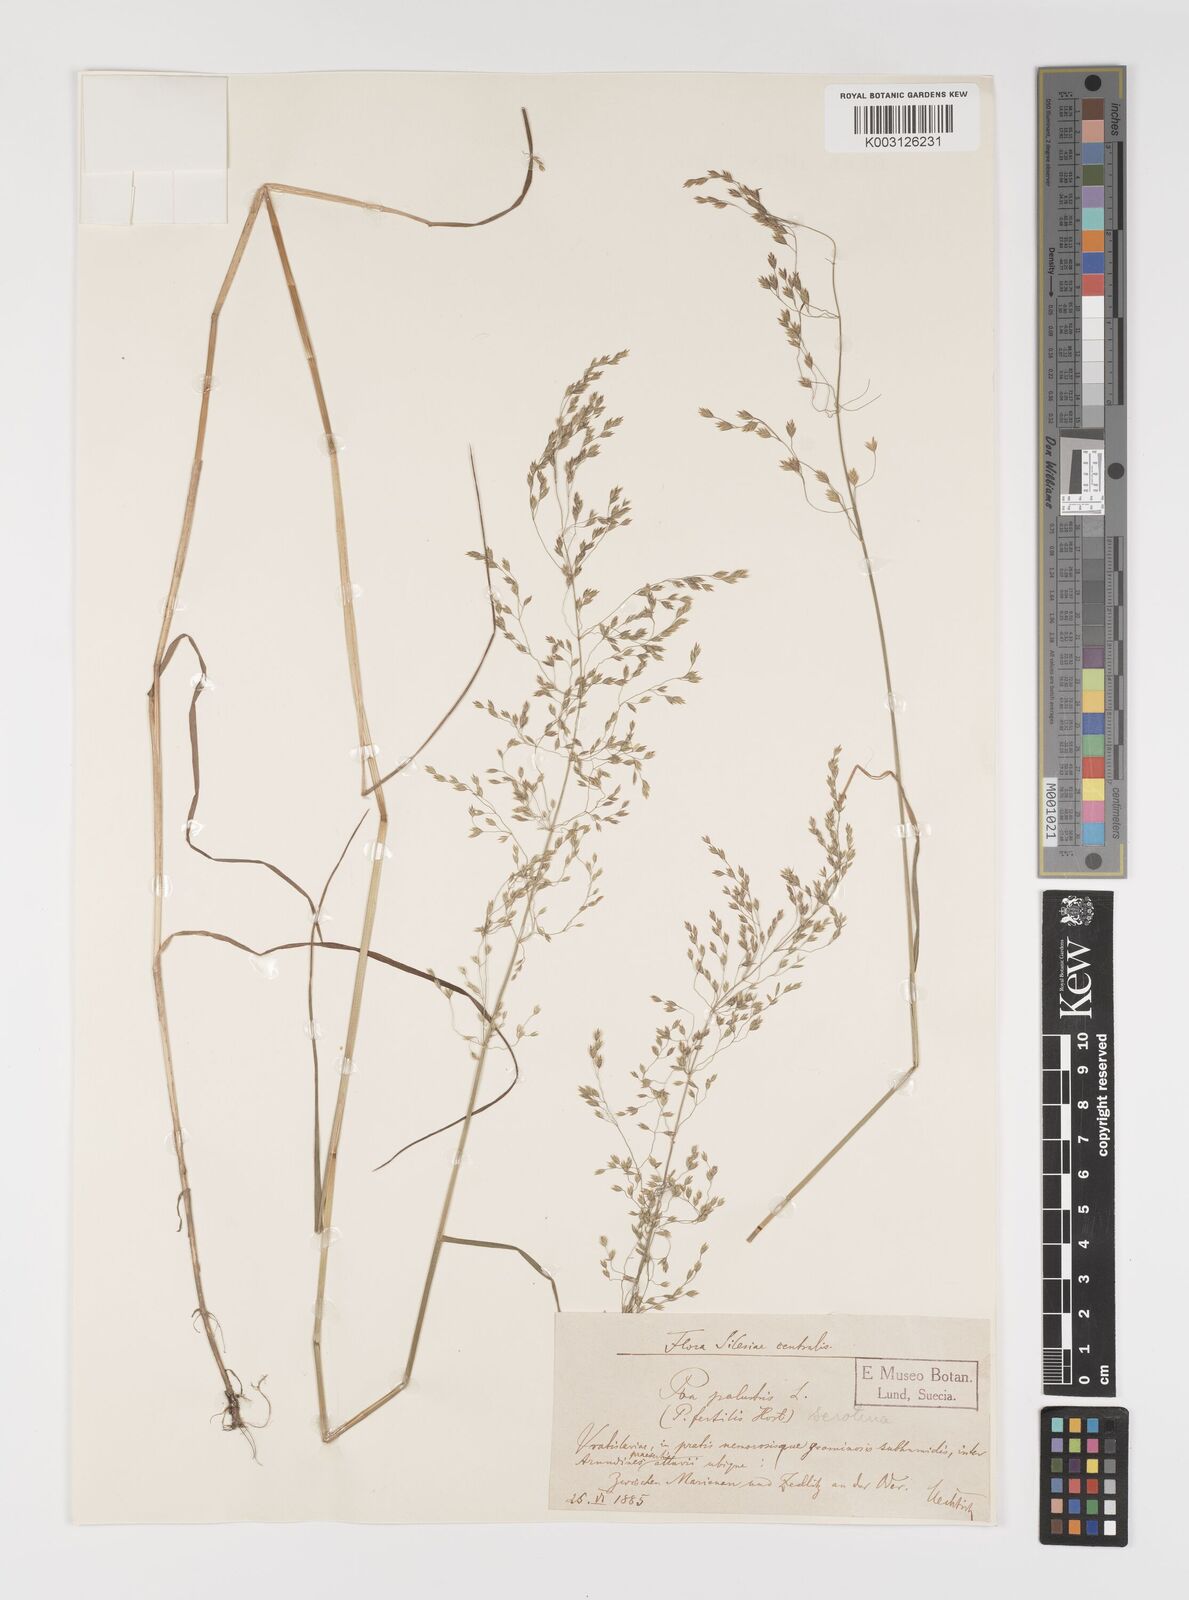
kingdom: Plantae
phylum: Tracheophyta
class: Liliopsida
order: Poales
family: Poaceae
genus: Poa
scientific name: Poa palustris
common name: Swamp meadow-grass
